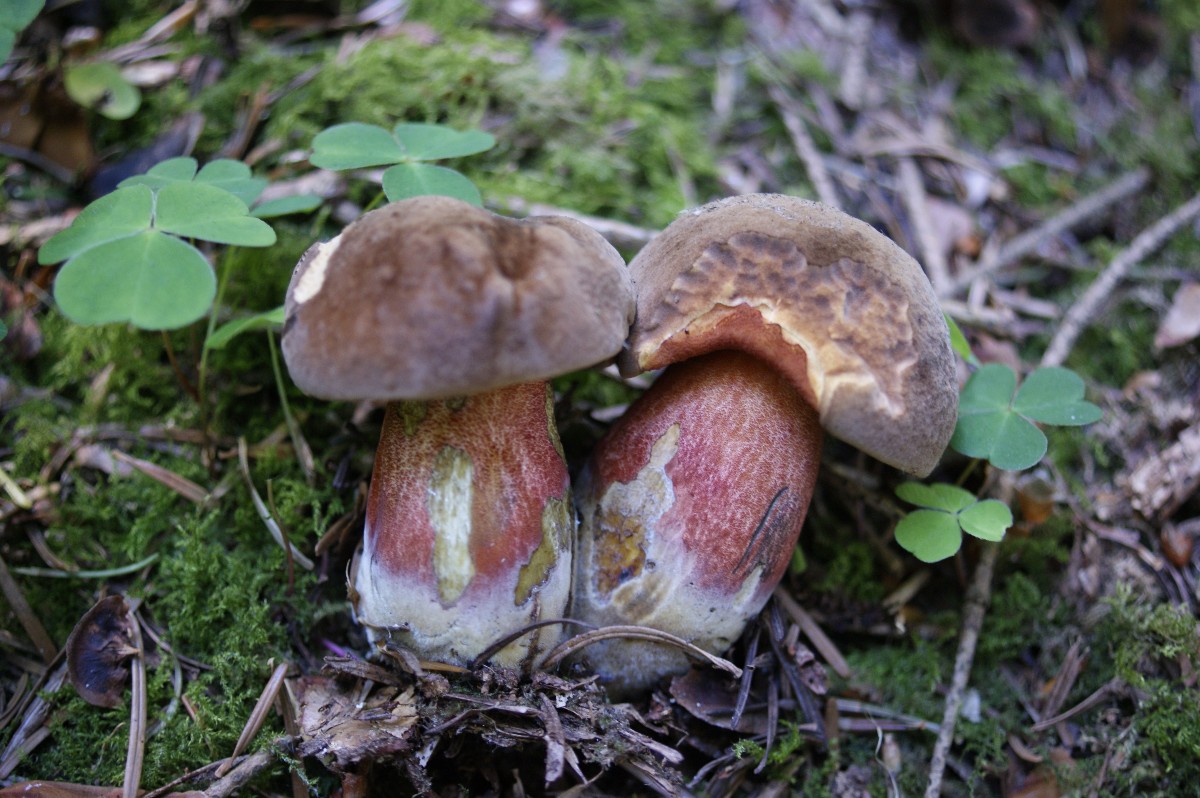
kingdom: Fungi
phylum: Basidiomycota
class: Agaricomycetes
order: Boletales
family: Boletaceae
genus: Neoboletus
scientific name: Neoboletus erythropus
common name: punktstokket indigorørhat
